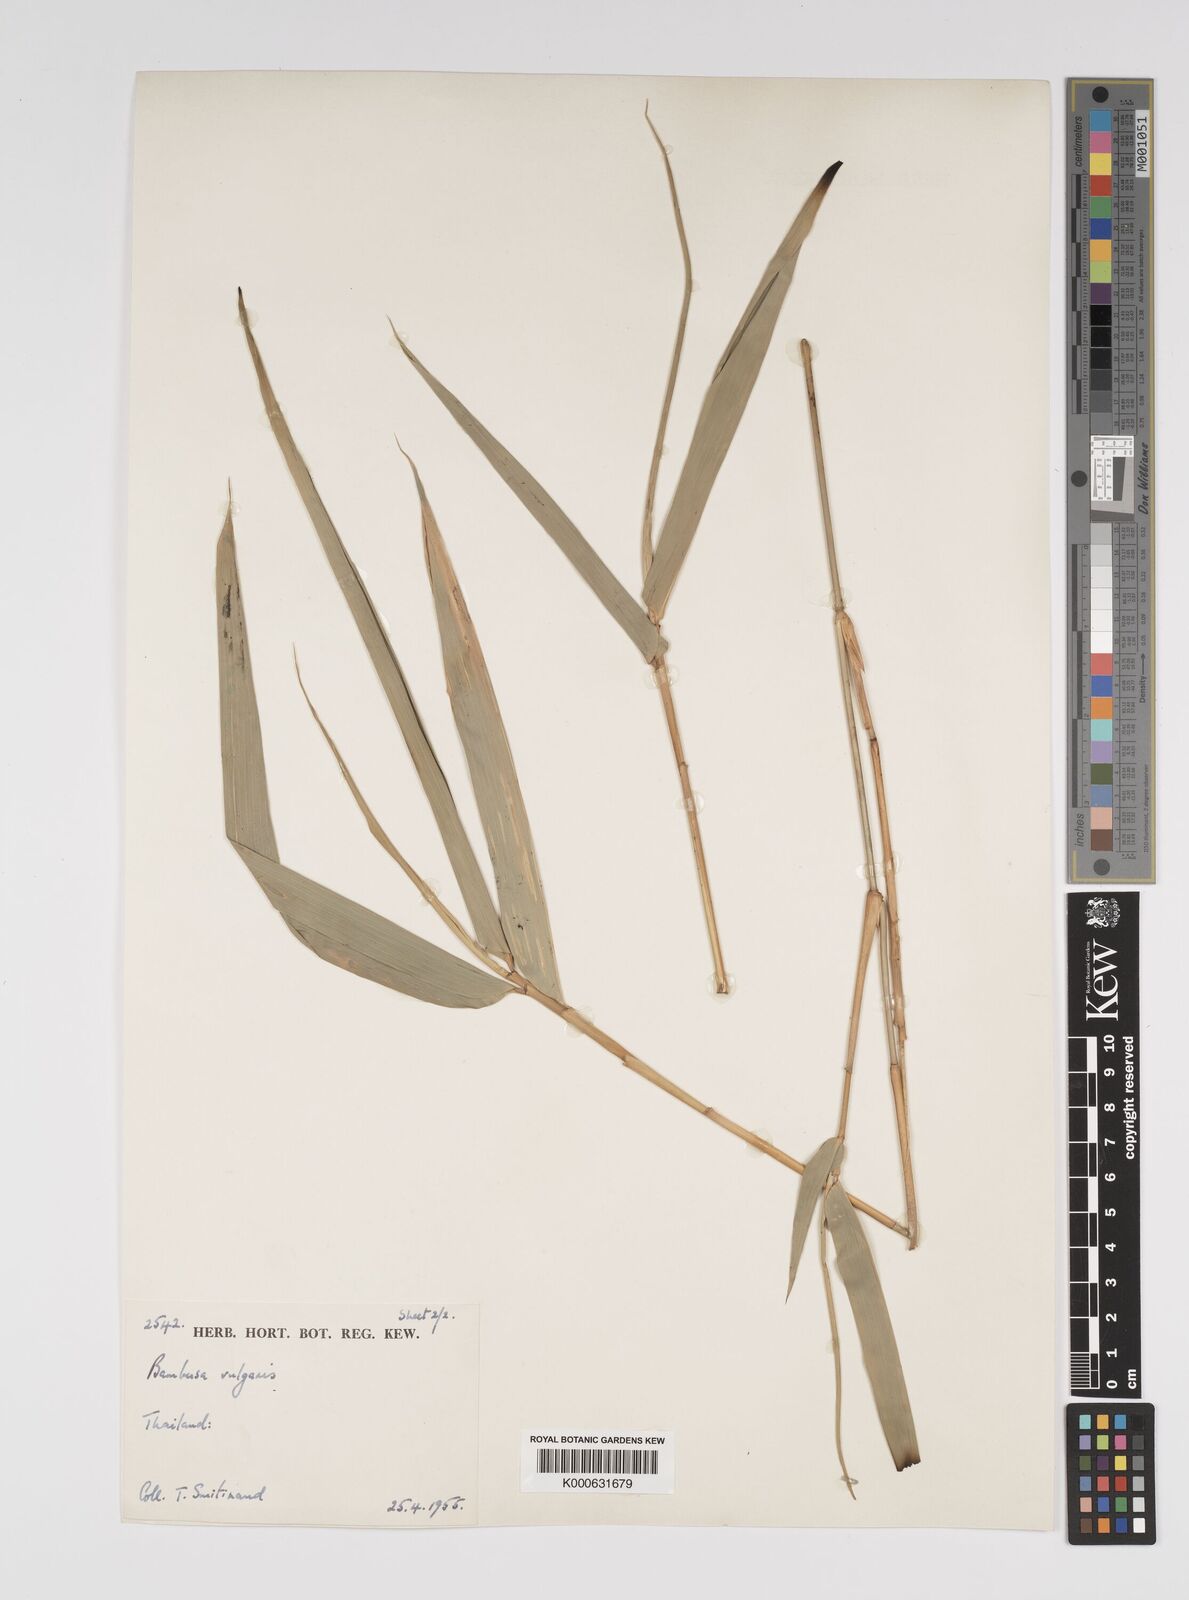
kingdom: Plantae
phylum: Tracheophyta
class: Liliopsida
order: Poales
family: Poaceae
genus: Bambusa
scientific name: Bambusa
